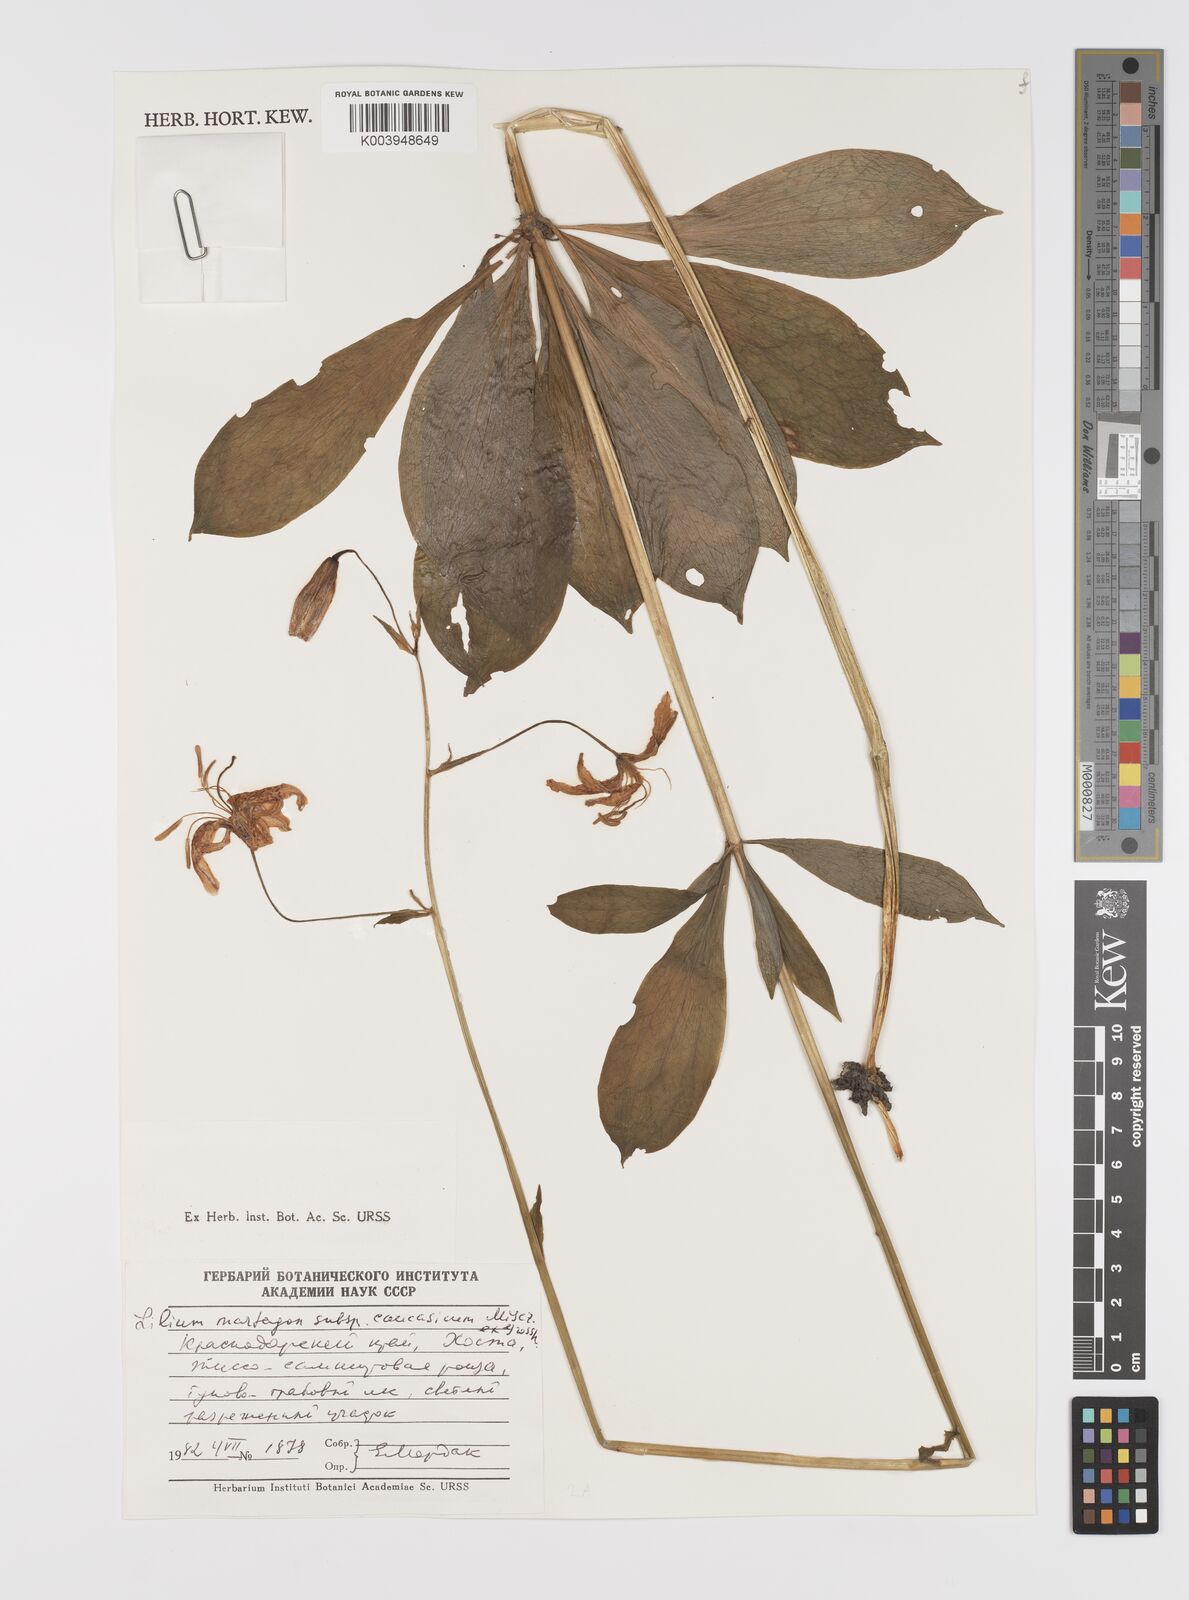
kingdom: Plantae
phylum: Tracheophyta
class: Liliopsida
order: Liliales
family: Liliaceae
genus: Lilium
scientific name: Lilium martagon
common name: Martagon lily
